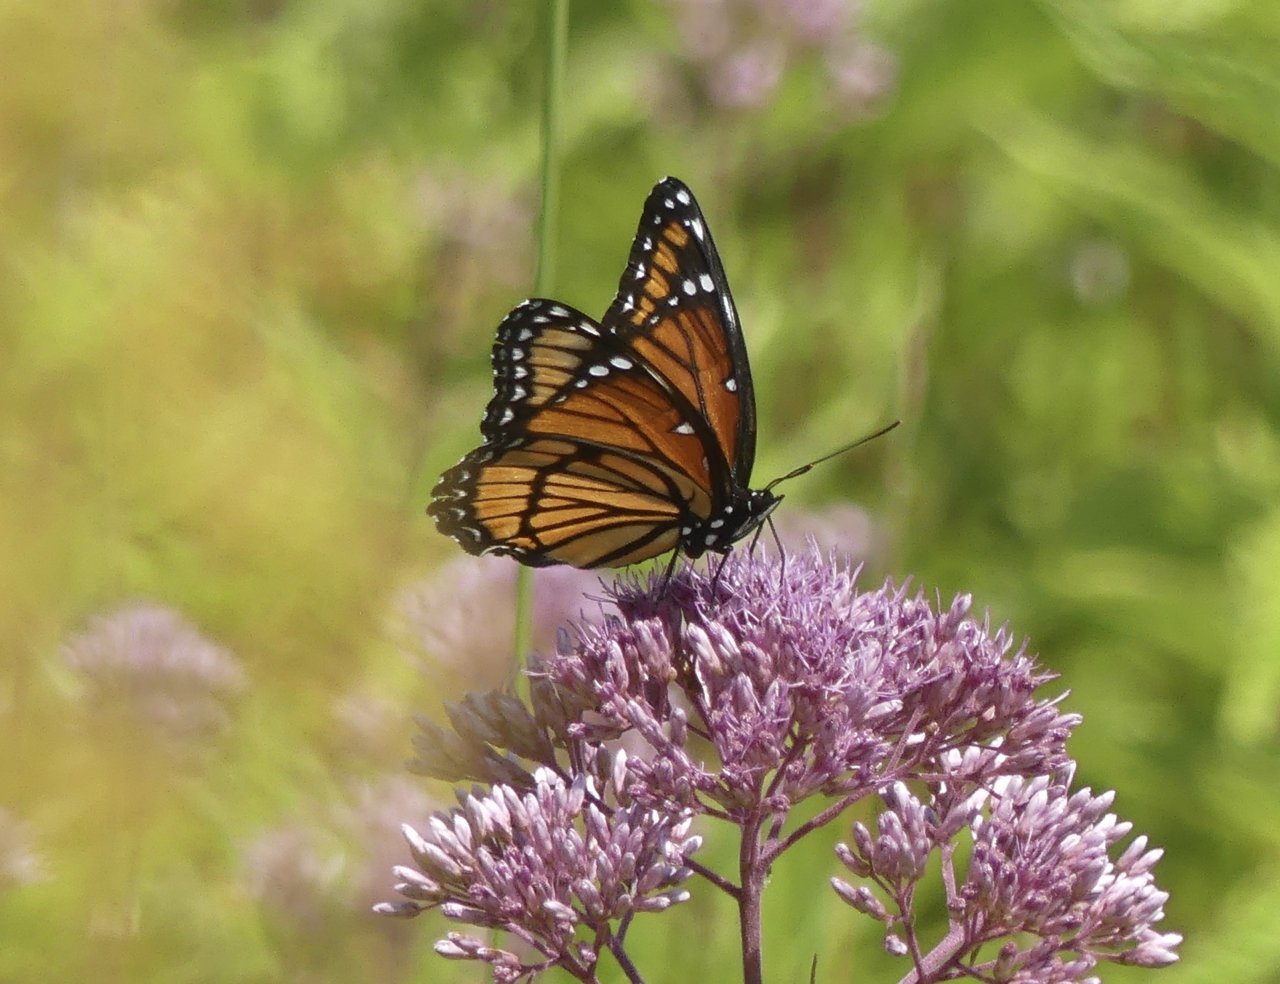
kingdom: Animalia
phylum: Arthropoda
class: Insecta
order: Lepidoptera
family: Nymphalidae
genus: Limenitis
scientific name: Limenitis archippus
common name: Viceroy
